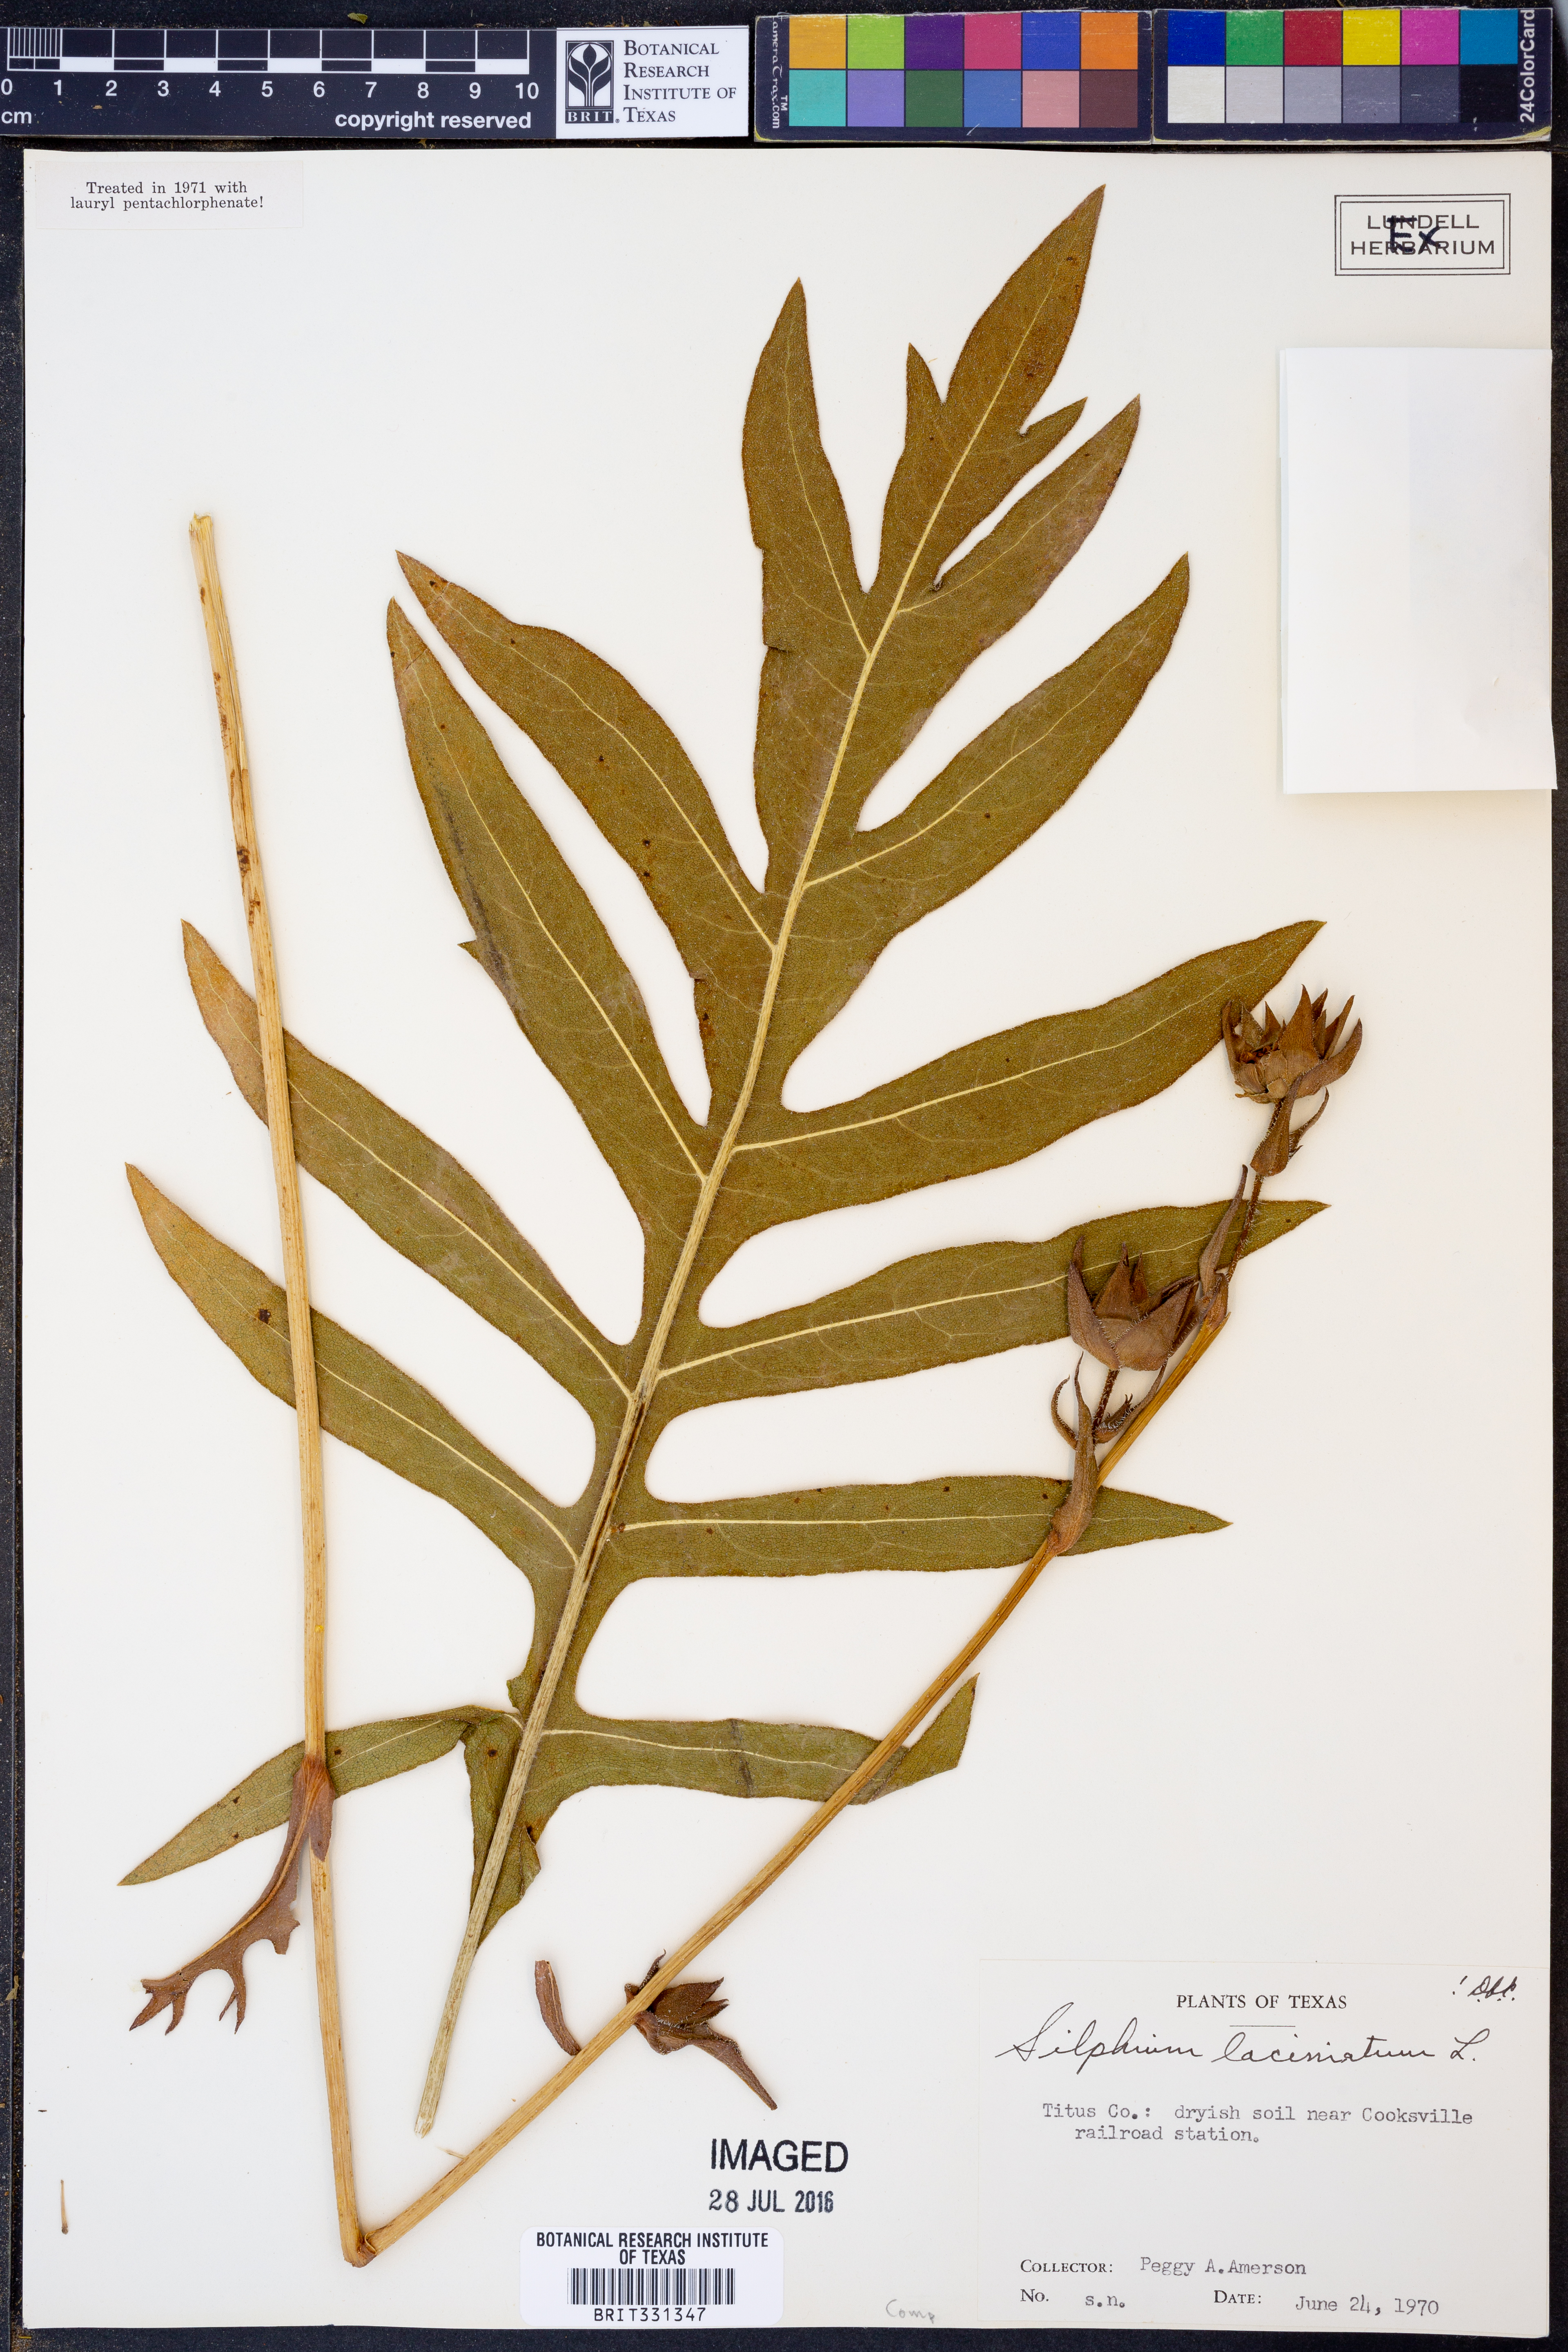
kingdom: Plantae
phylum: Tracheophyta
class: Magnoliopsida
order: Asterales
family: Asteraceae
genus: Silphium
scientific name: Silphium laciniatum
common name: Polarplant
